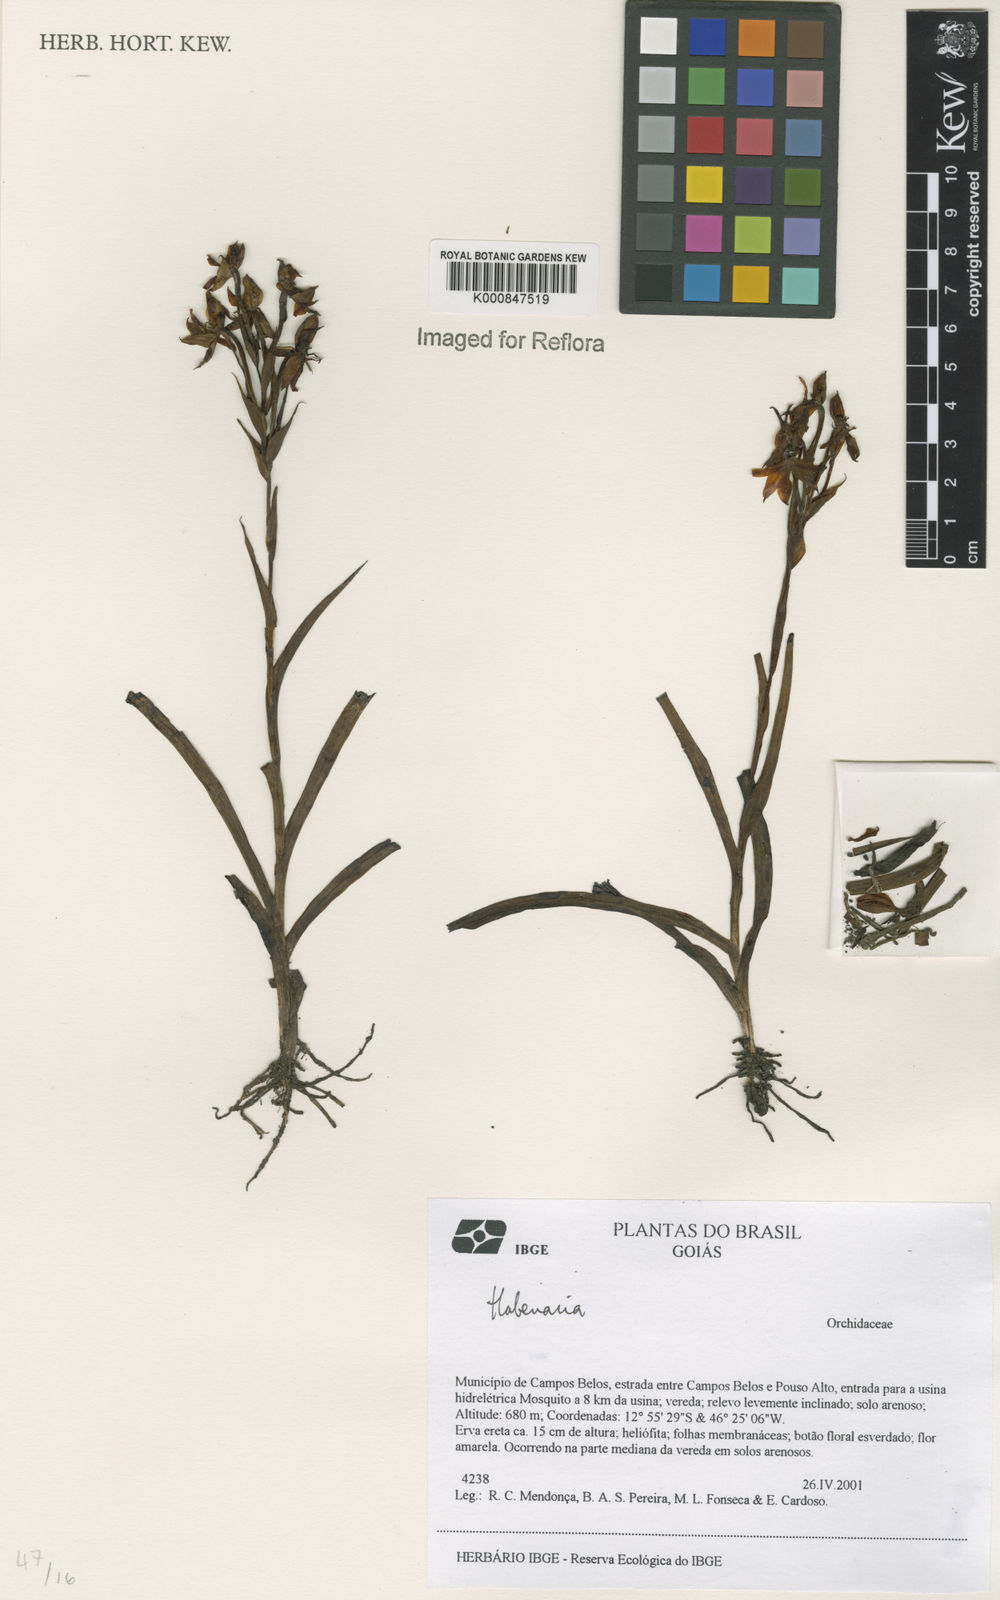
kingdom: Plantae
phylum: Tracheophyta
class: Liliopsida
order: Asparagales
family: Orchidaceae
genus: Habenaria
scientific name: Habenaria
